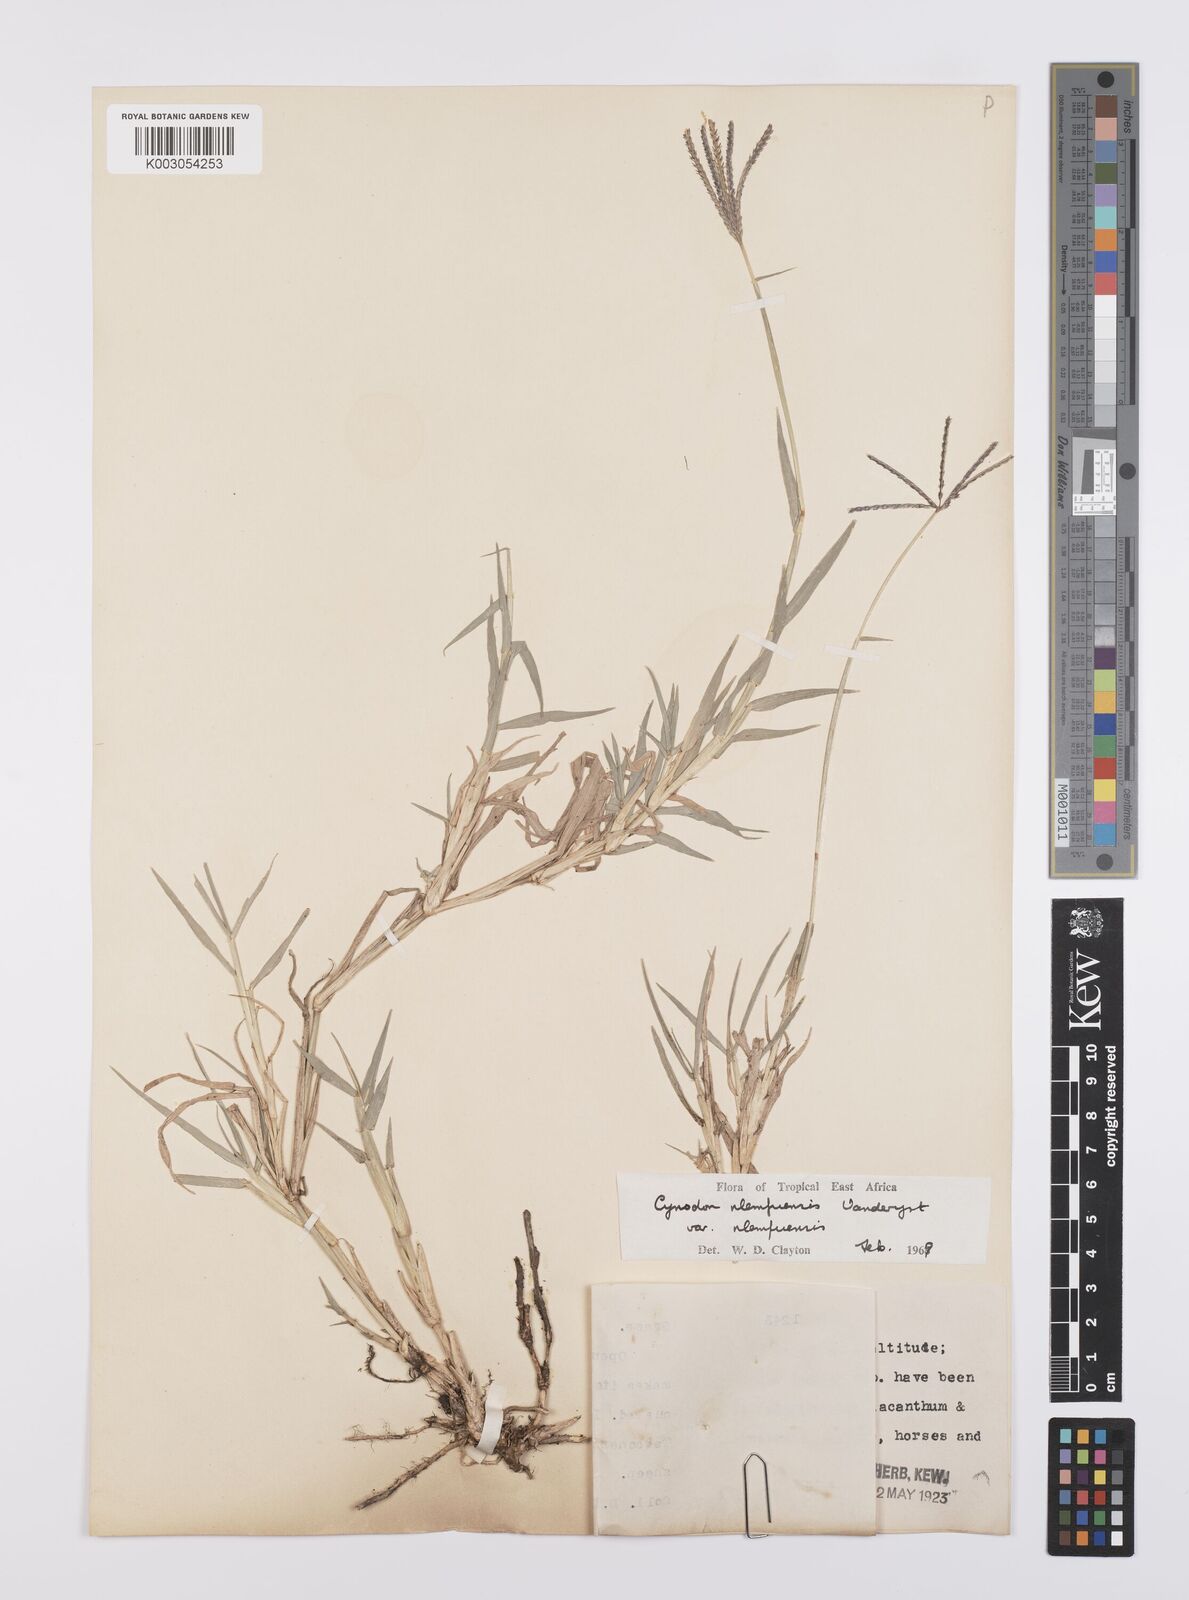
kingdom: Plantae
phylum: Tracheophyta
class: Liliopsida
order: Poales
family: Poaceae
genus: Cynodon
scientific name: Cynodon nlemfuensis
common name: African bermudagrass
